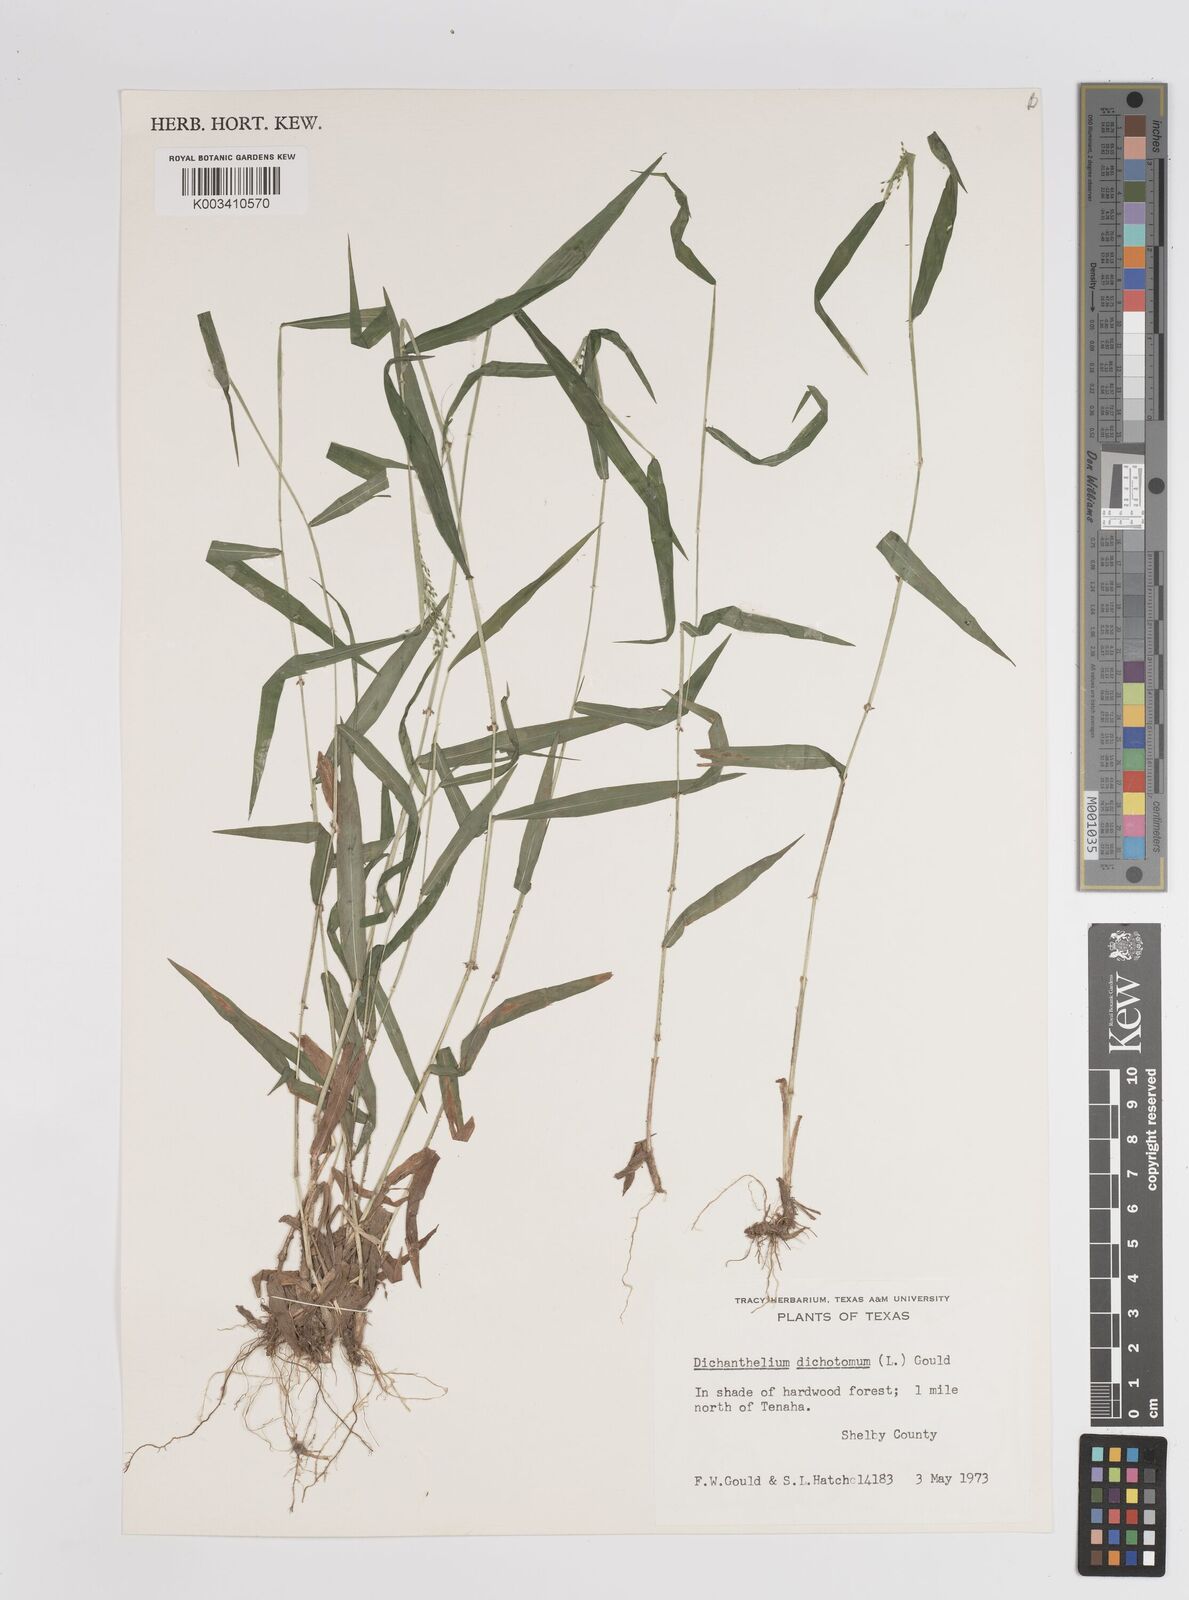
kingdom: Plantae
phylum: Tracheophyta
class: Liliopsida
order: Poales
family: Poaceae
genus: Dichanthelium
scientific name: Dichanthelium dichotomum
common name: Cypress panicgrass
